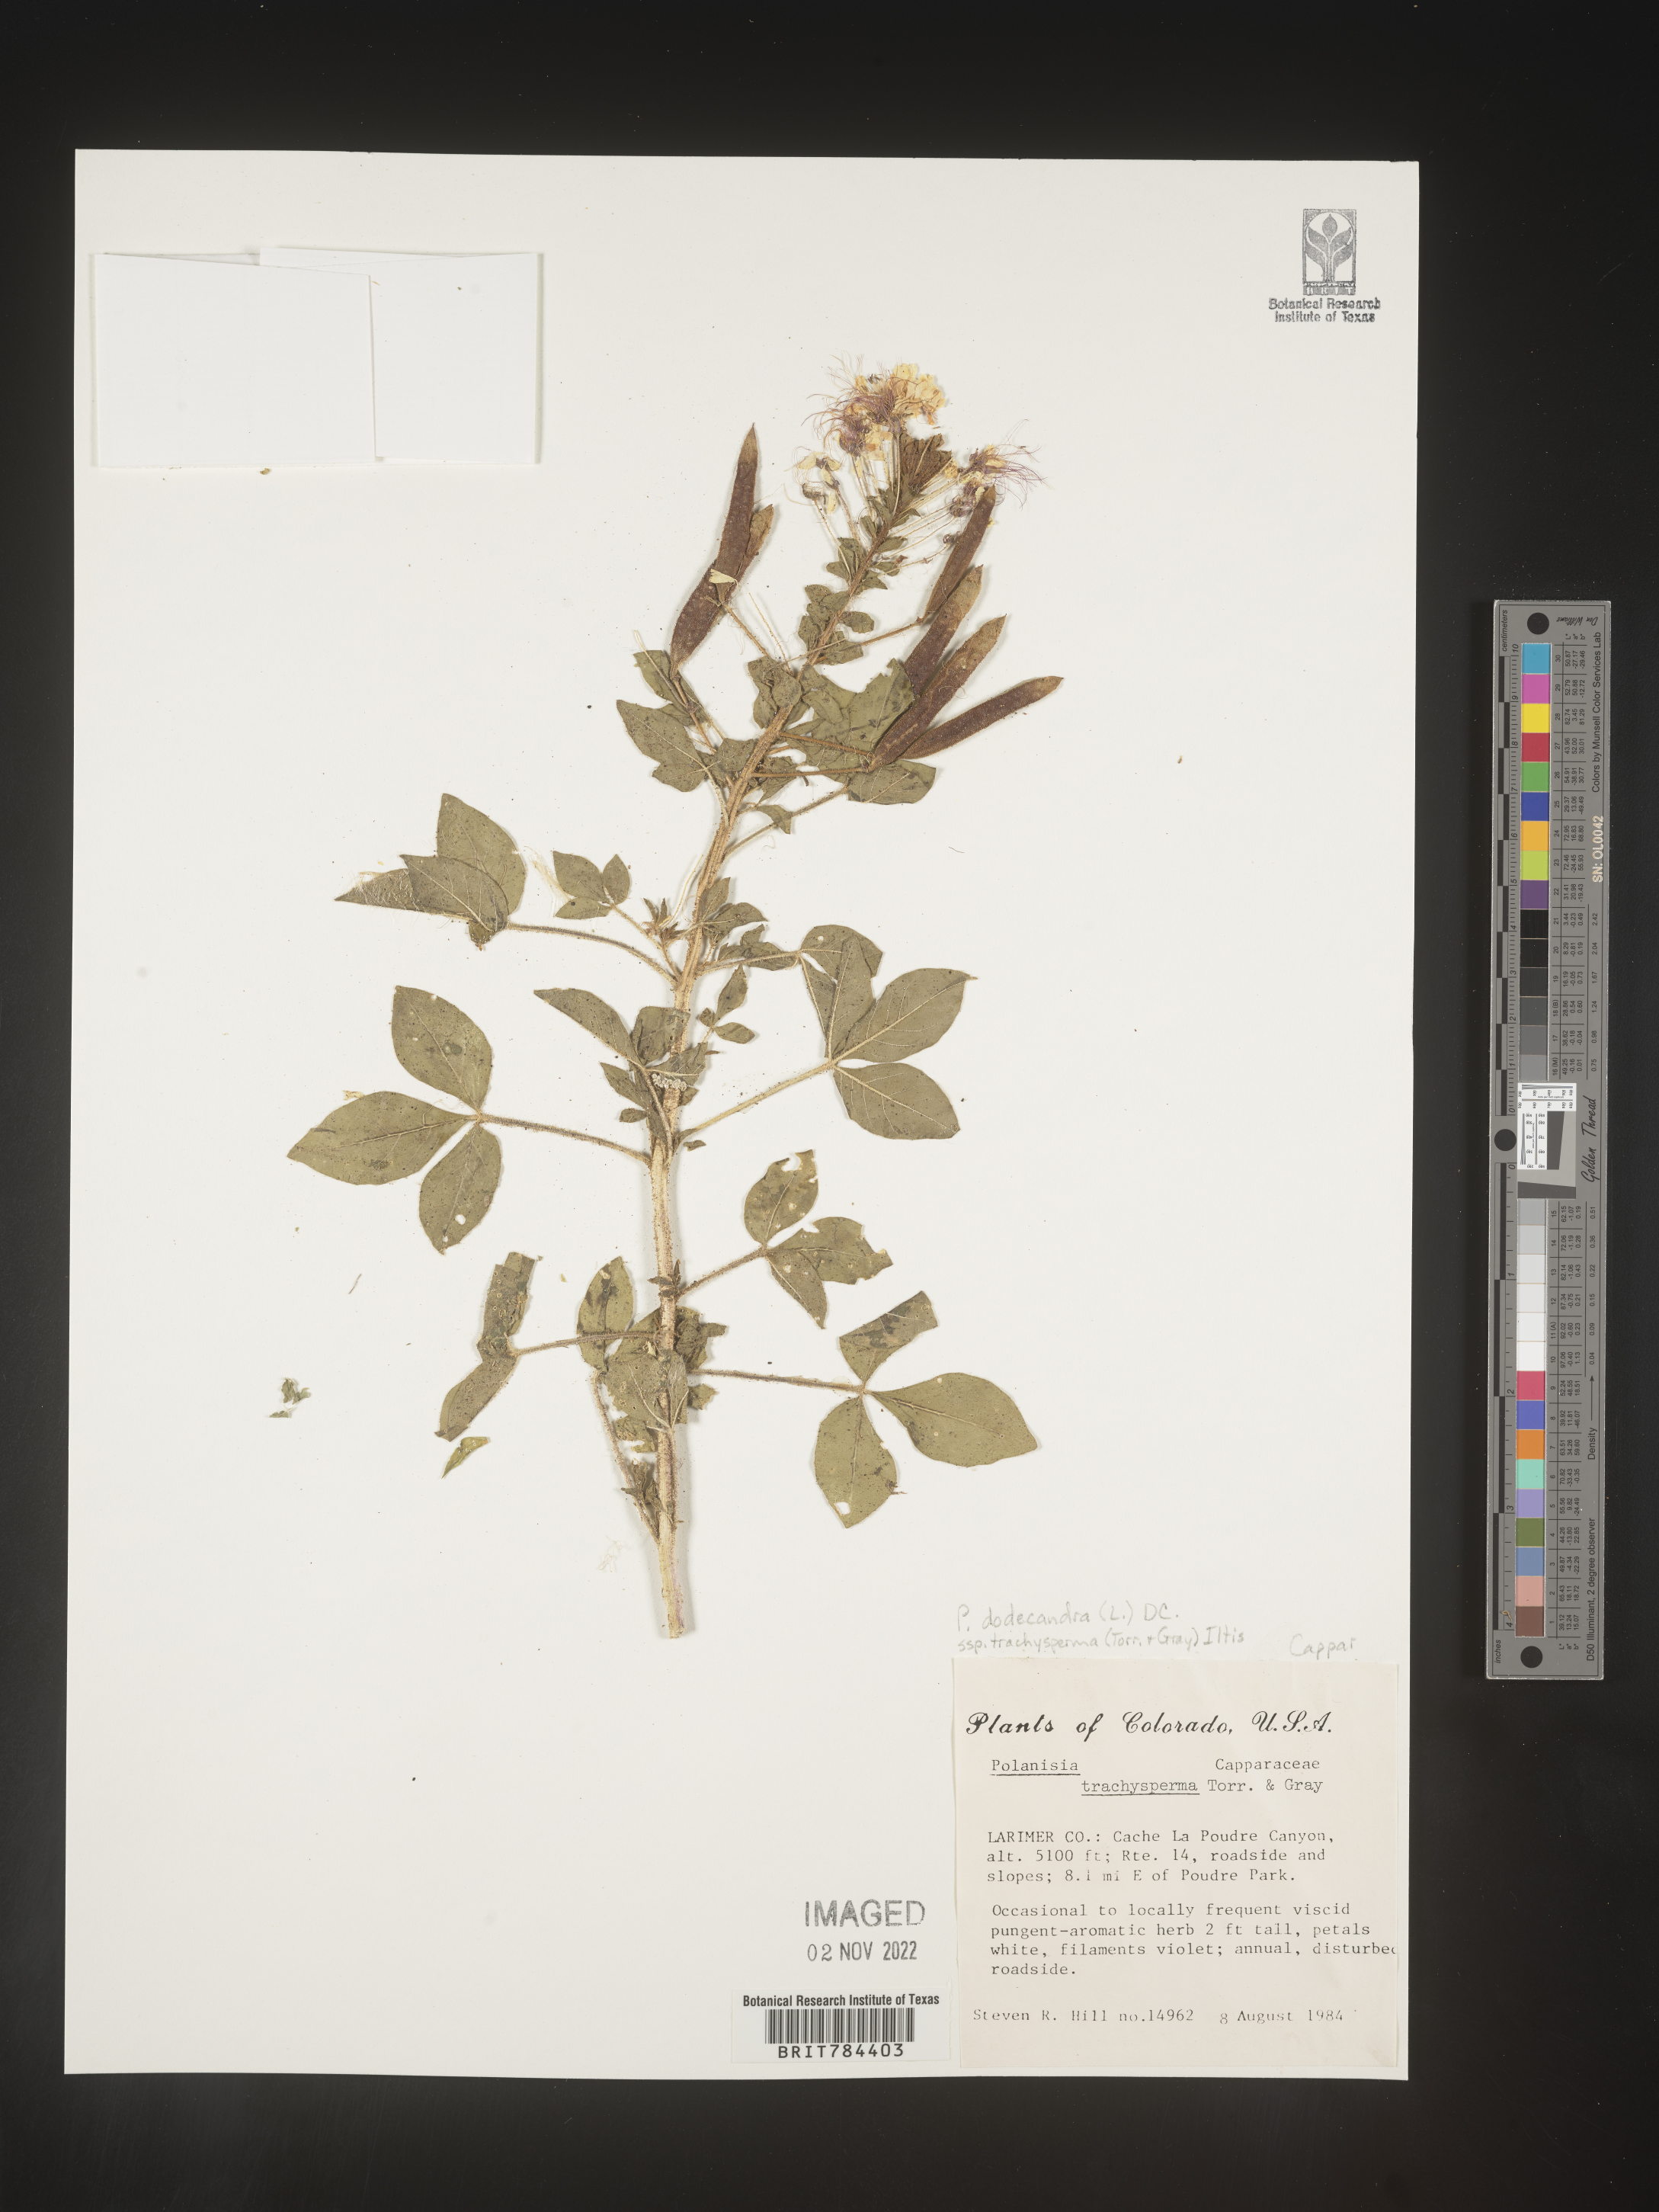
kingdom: Plantae
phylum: Tracheophyta
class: Magnoliopsida
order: Brassicales
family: Cleomaceae
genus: Polanisia
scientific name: Polanisia dodecandra
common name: Clammyweed
